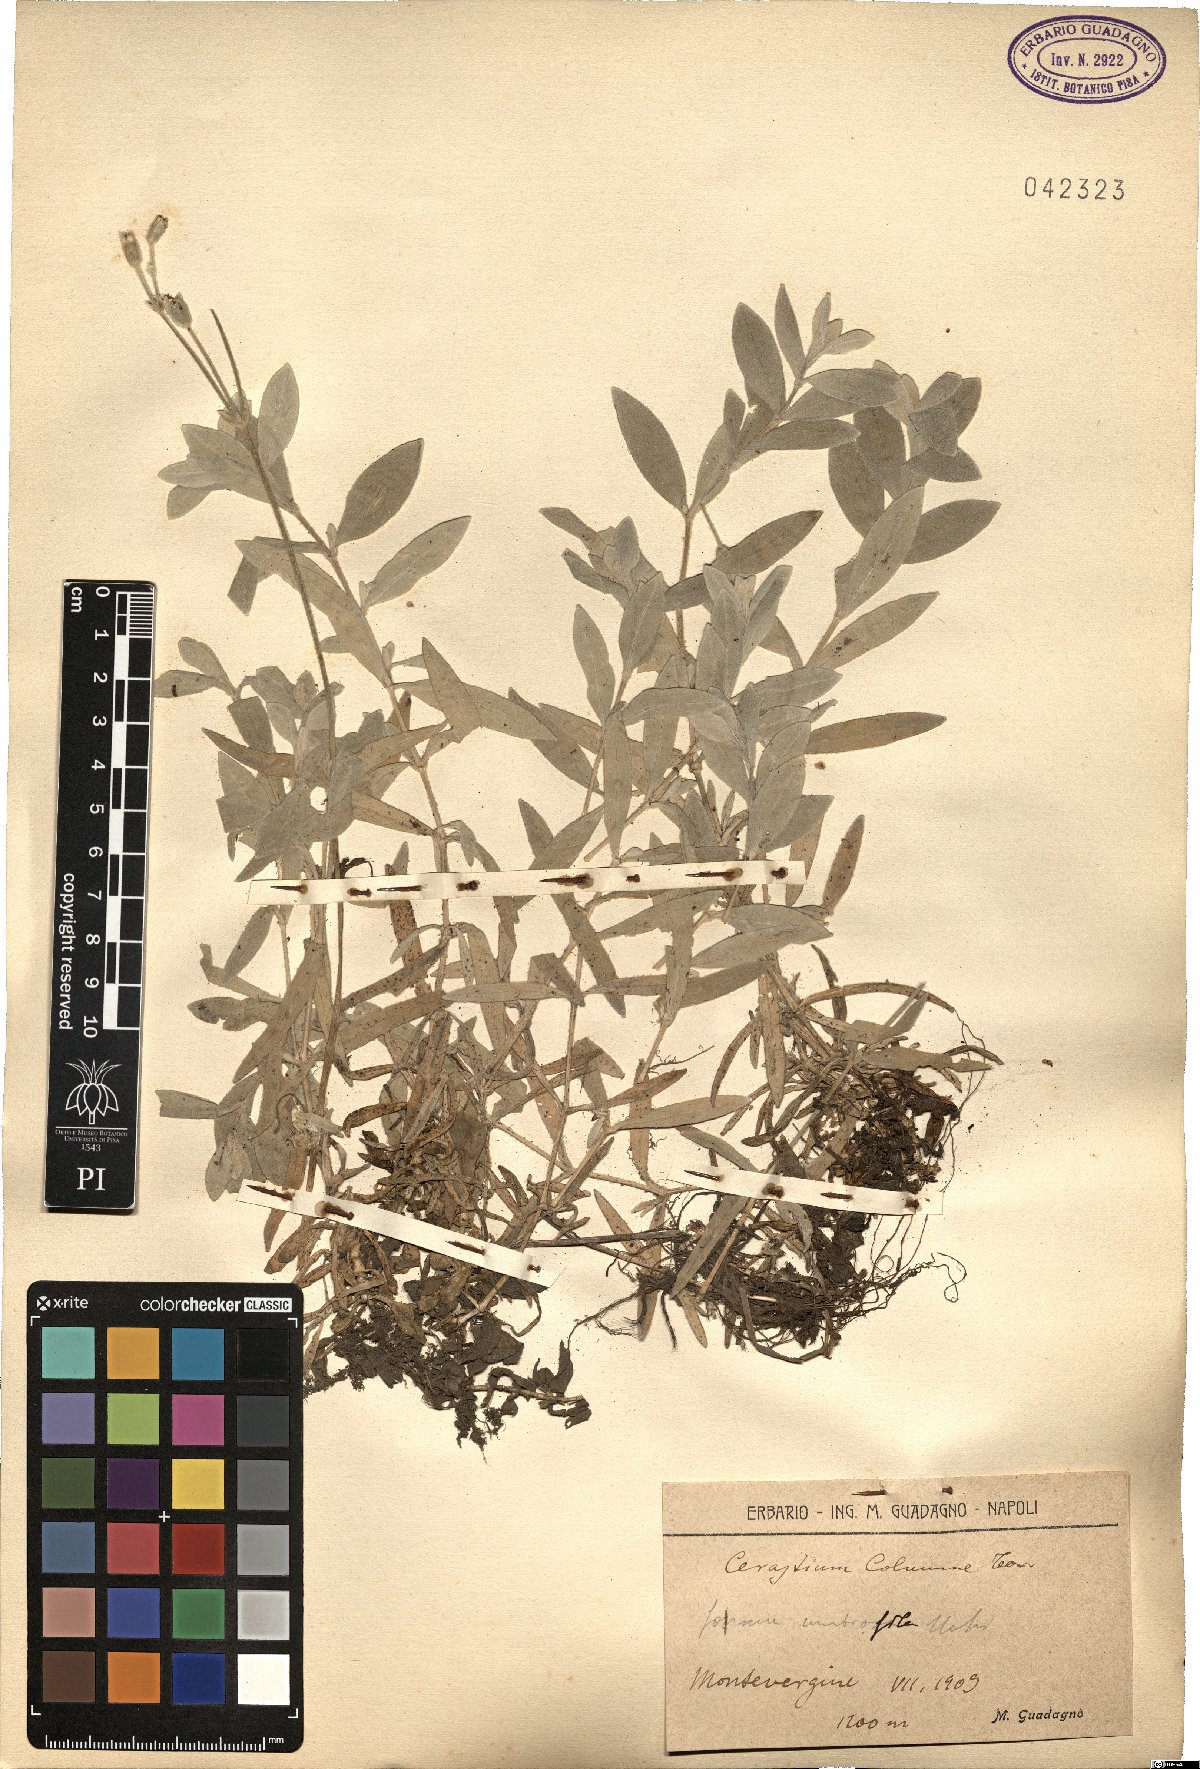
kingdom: Plantae
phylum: Tracheophyta
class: Magnoliopsida
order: Caryophyllales
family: Caryophyllaceae
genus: Cerastium
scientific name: Cerastium tomentosum
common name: Snow-in-summer
